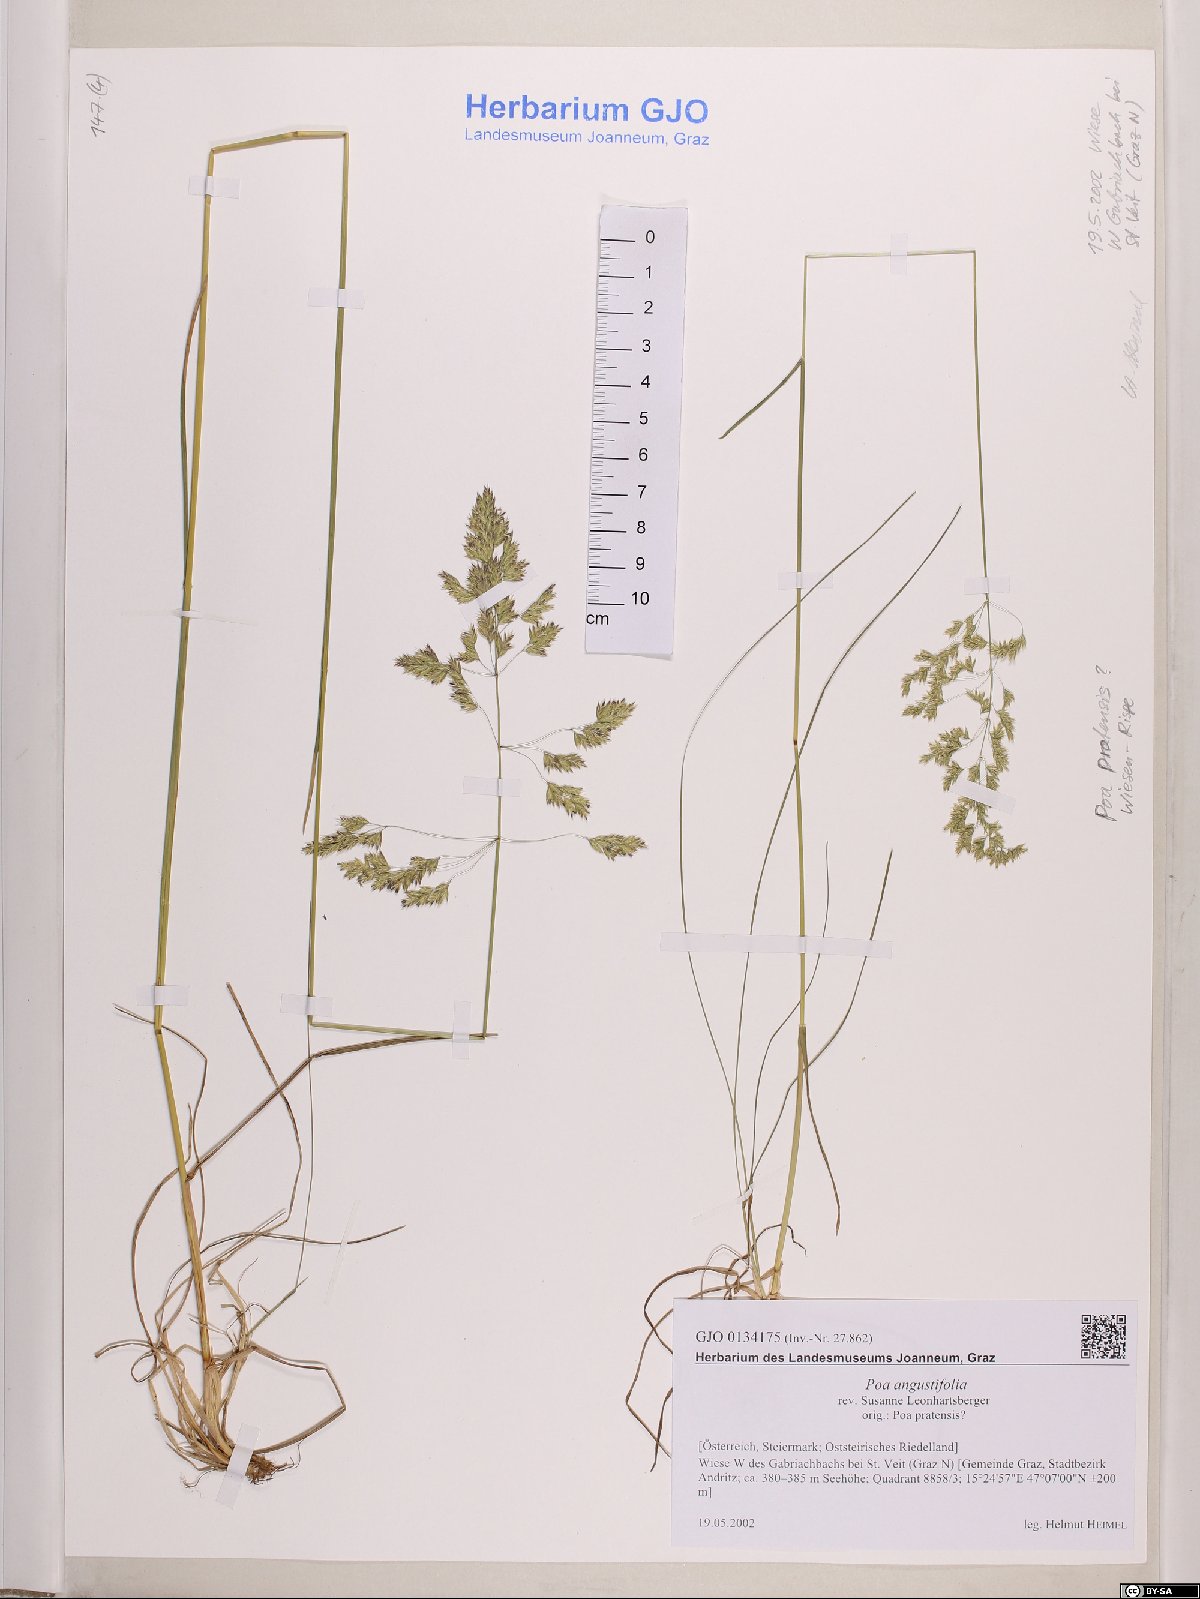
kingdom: Plantae
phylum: Tracheophyta
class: Liliopsida
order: Poales
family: Poaceae
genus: Poa
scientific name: Poa angustifolia
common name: Narrow-leaved meadow-grass
